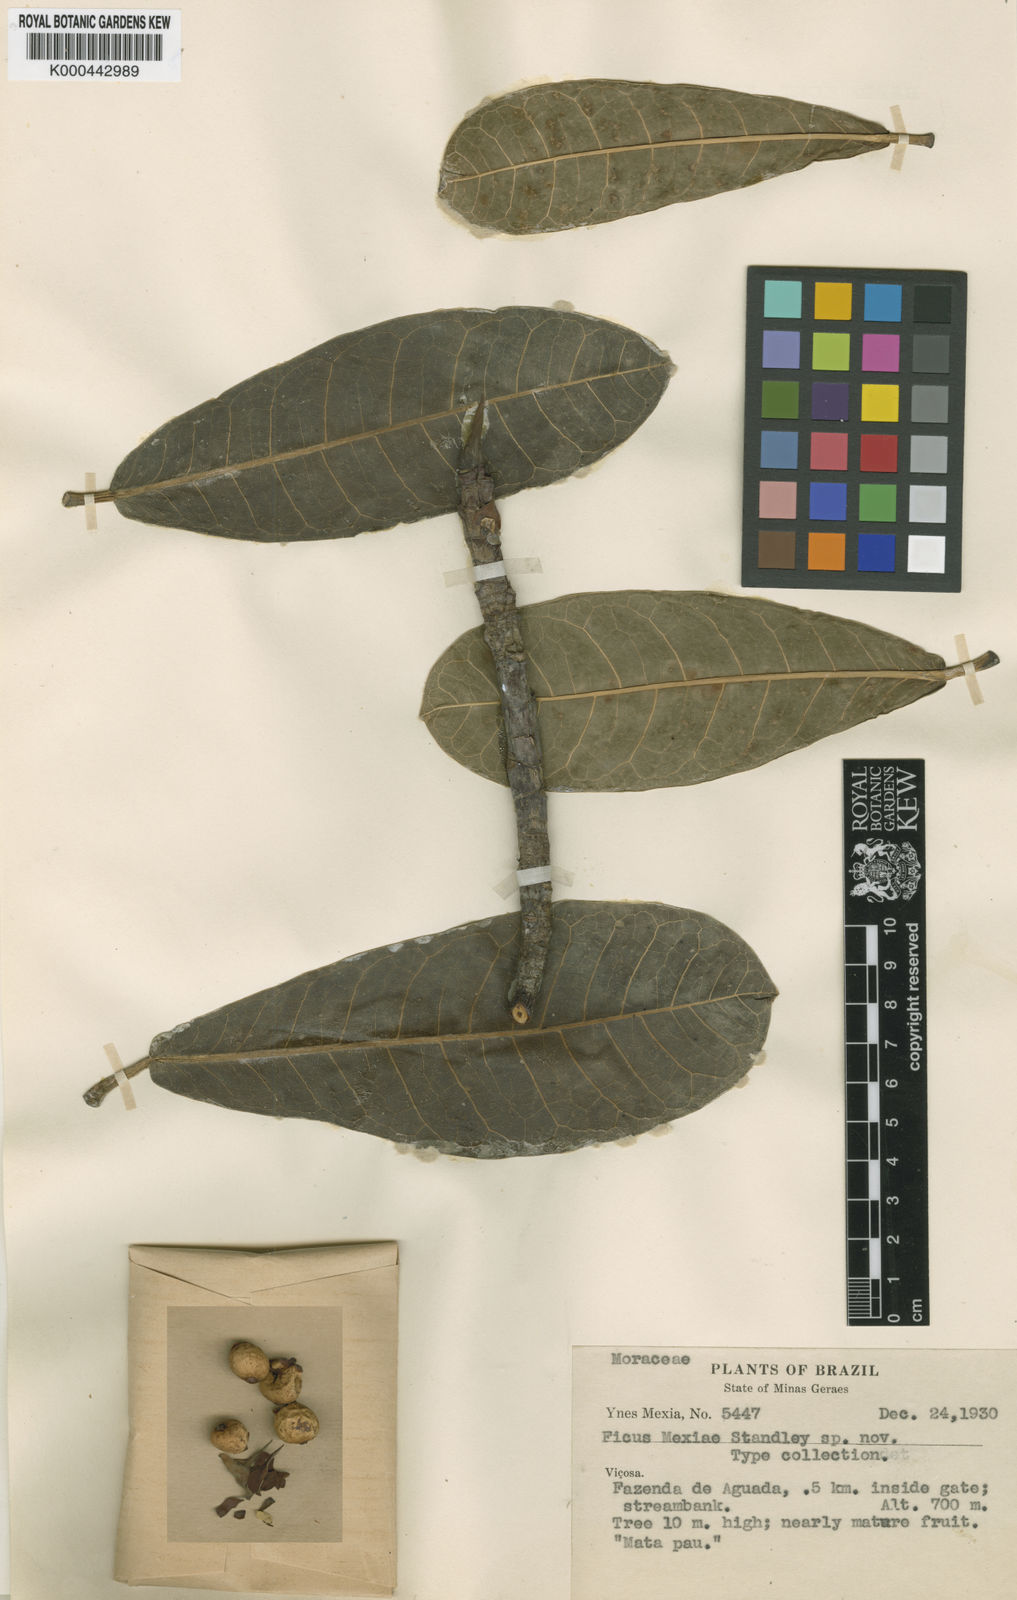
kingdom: Plantae
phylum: Tracheophyta
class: Magnoliopsida
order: Rosales
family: Moraceae
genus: Ficus
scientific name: Ficus mexiae
